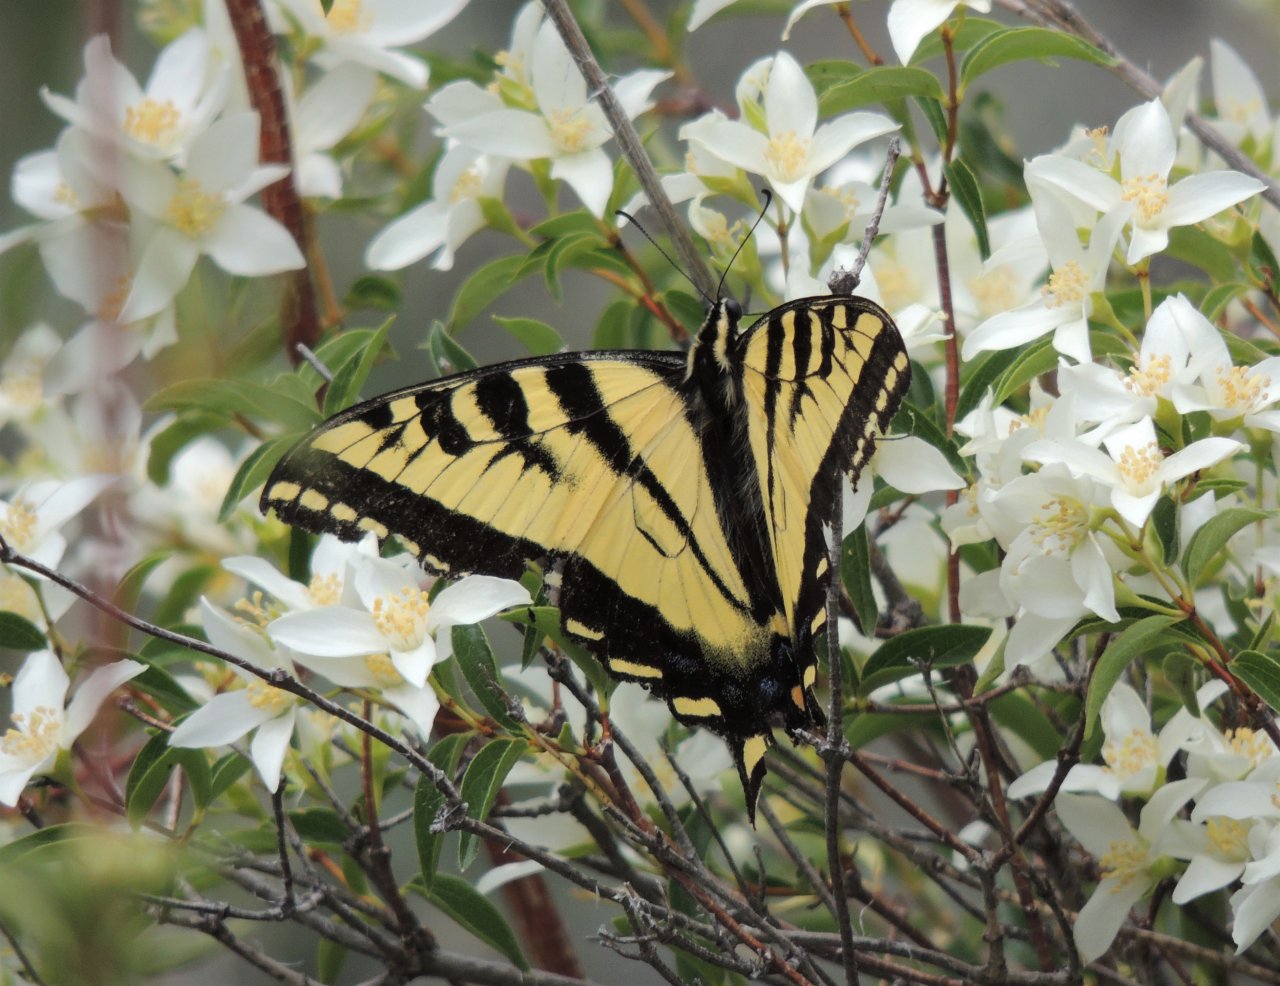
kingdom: Animalia
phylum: Arthropoda
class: Insecta
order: Lepidoptera
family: Papilionidae
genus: Pterourus
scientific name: Pterourus rutulus
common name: Western Tiger Swallowtail
